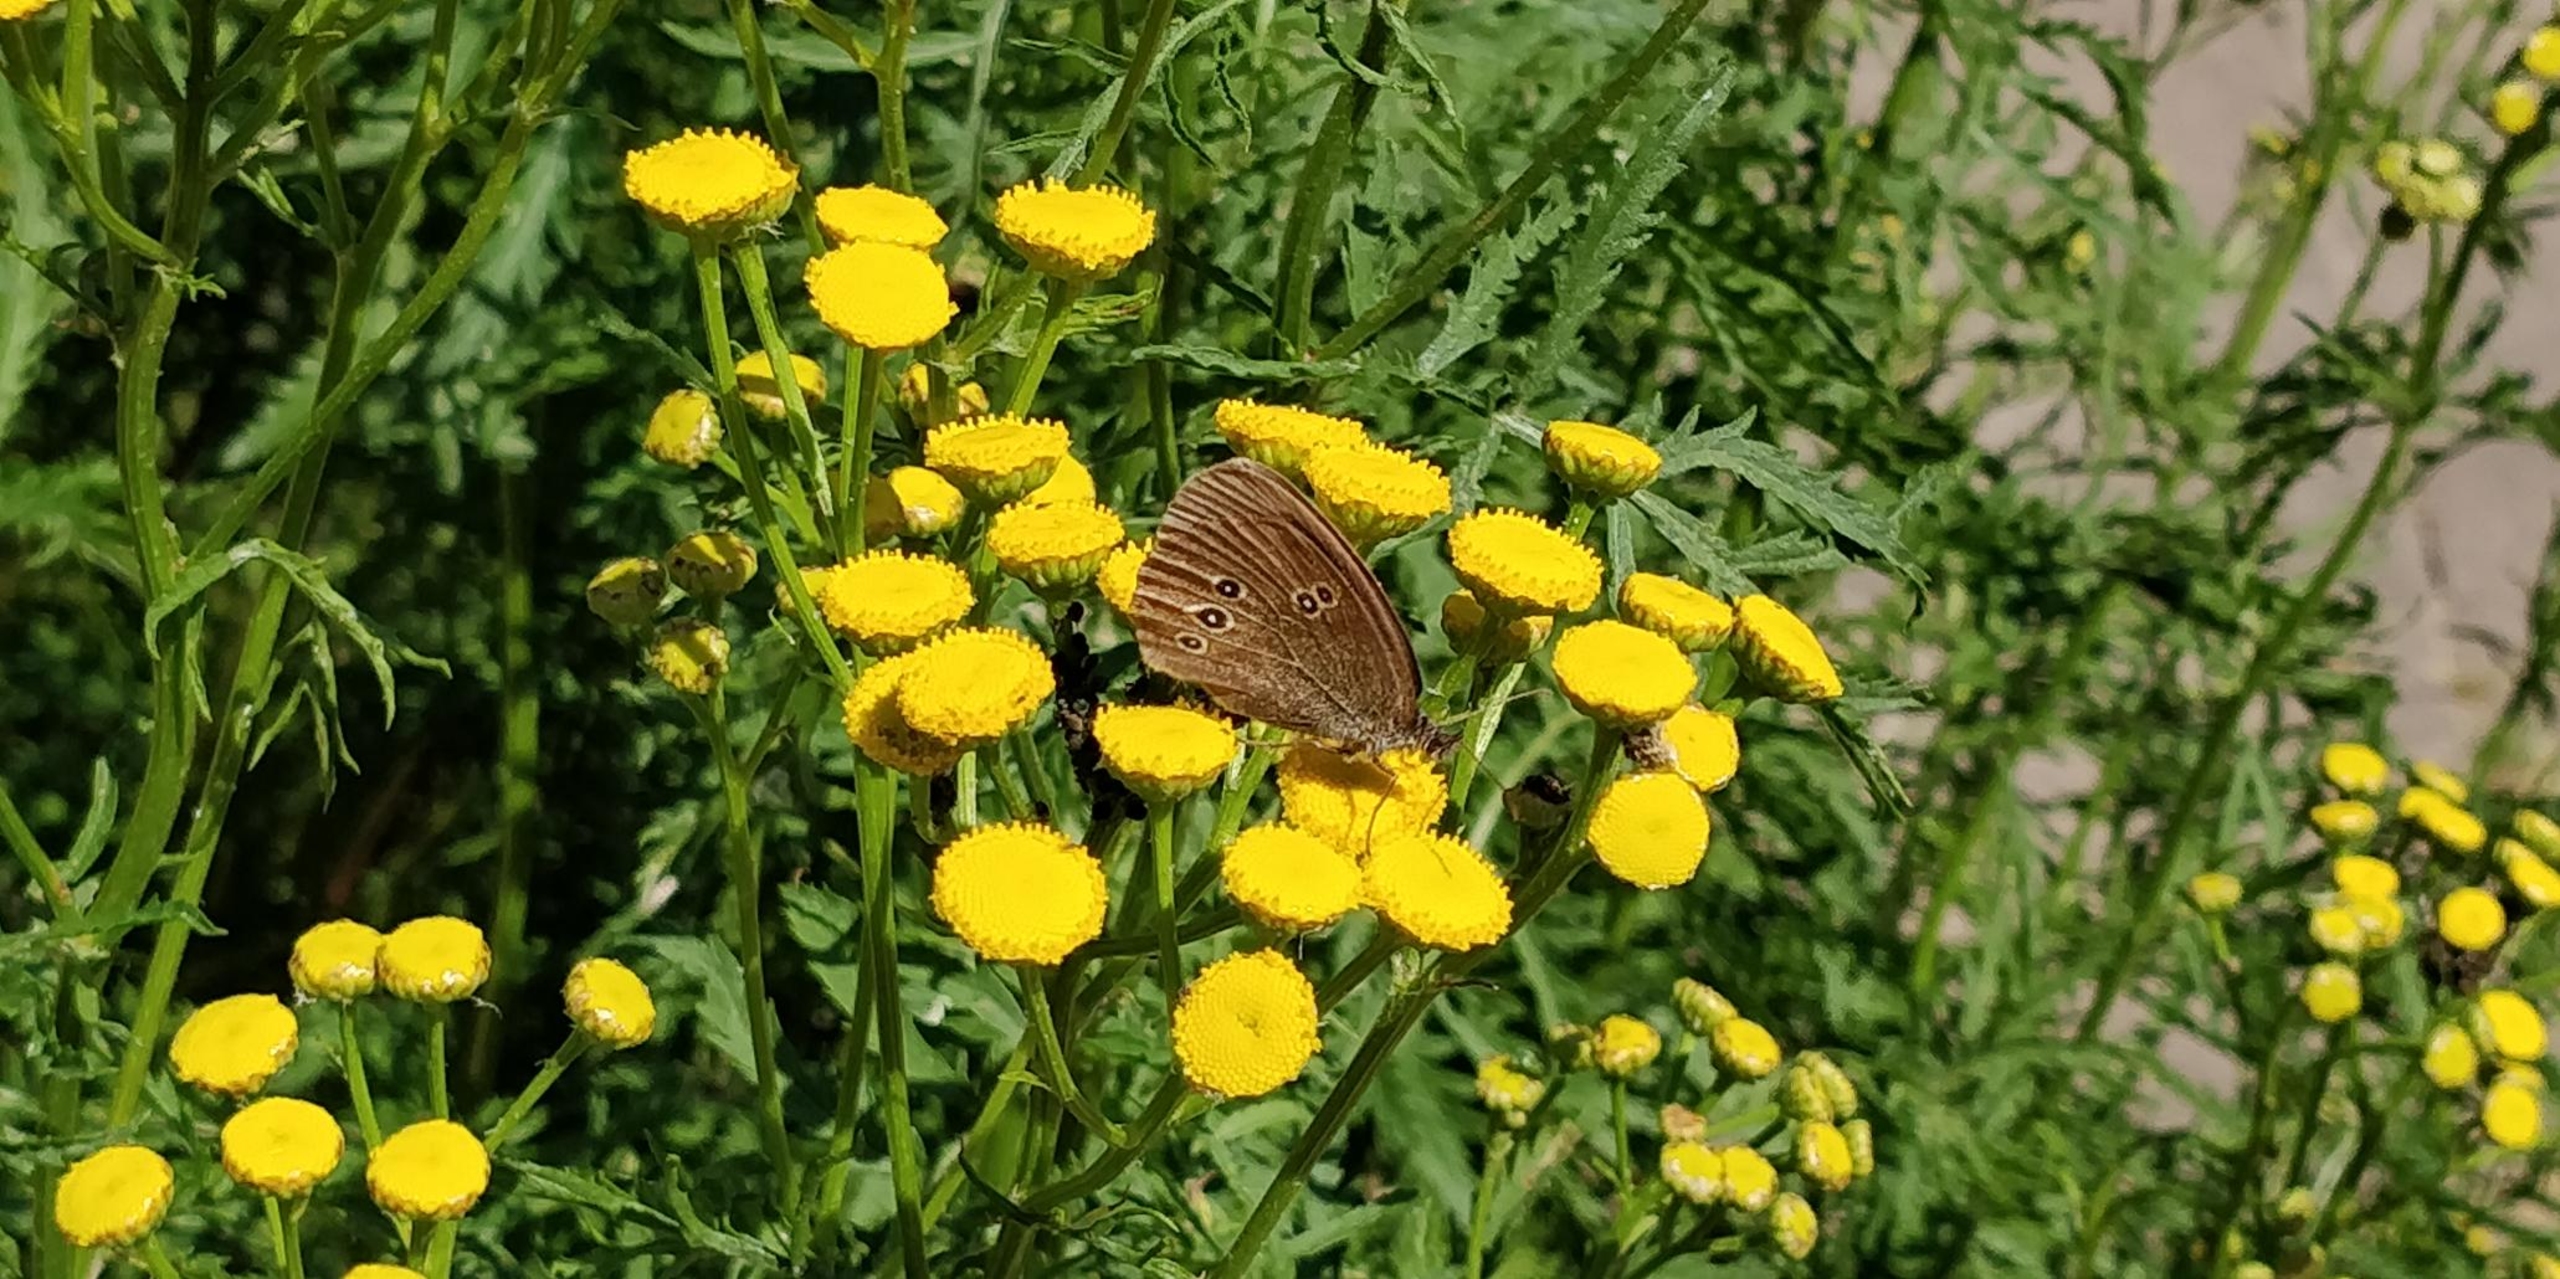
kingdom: Animalia
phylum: Arthropoda
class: Insecta
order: Lepidoptera
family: Nymphalidae
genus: Aphantopus
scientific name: Aphantopus hyperantus
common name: Engrandøje
